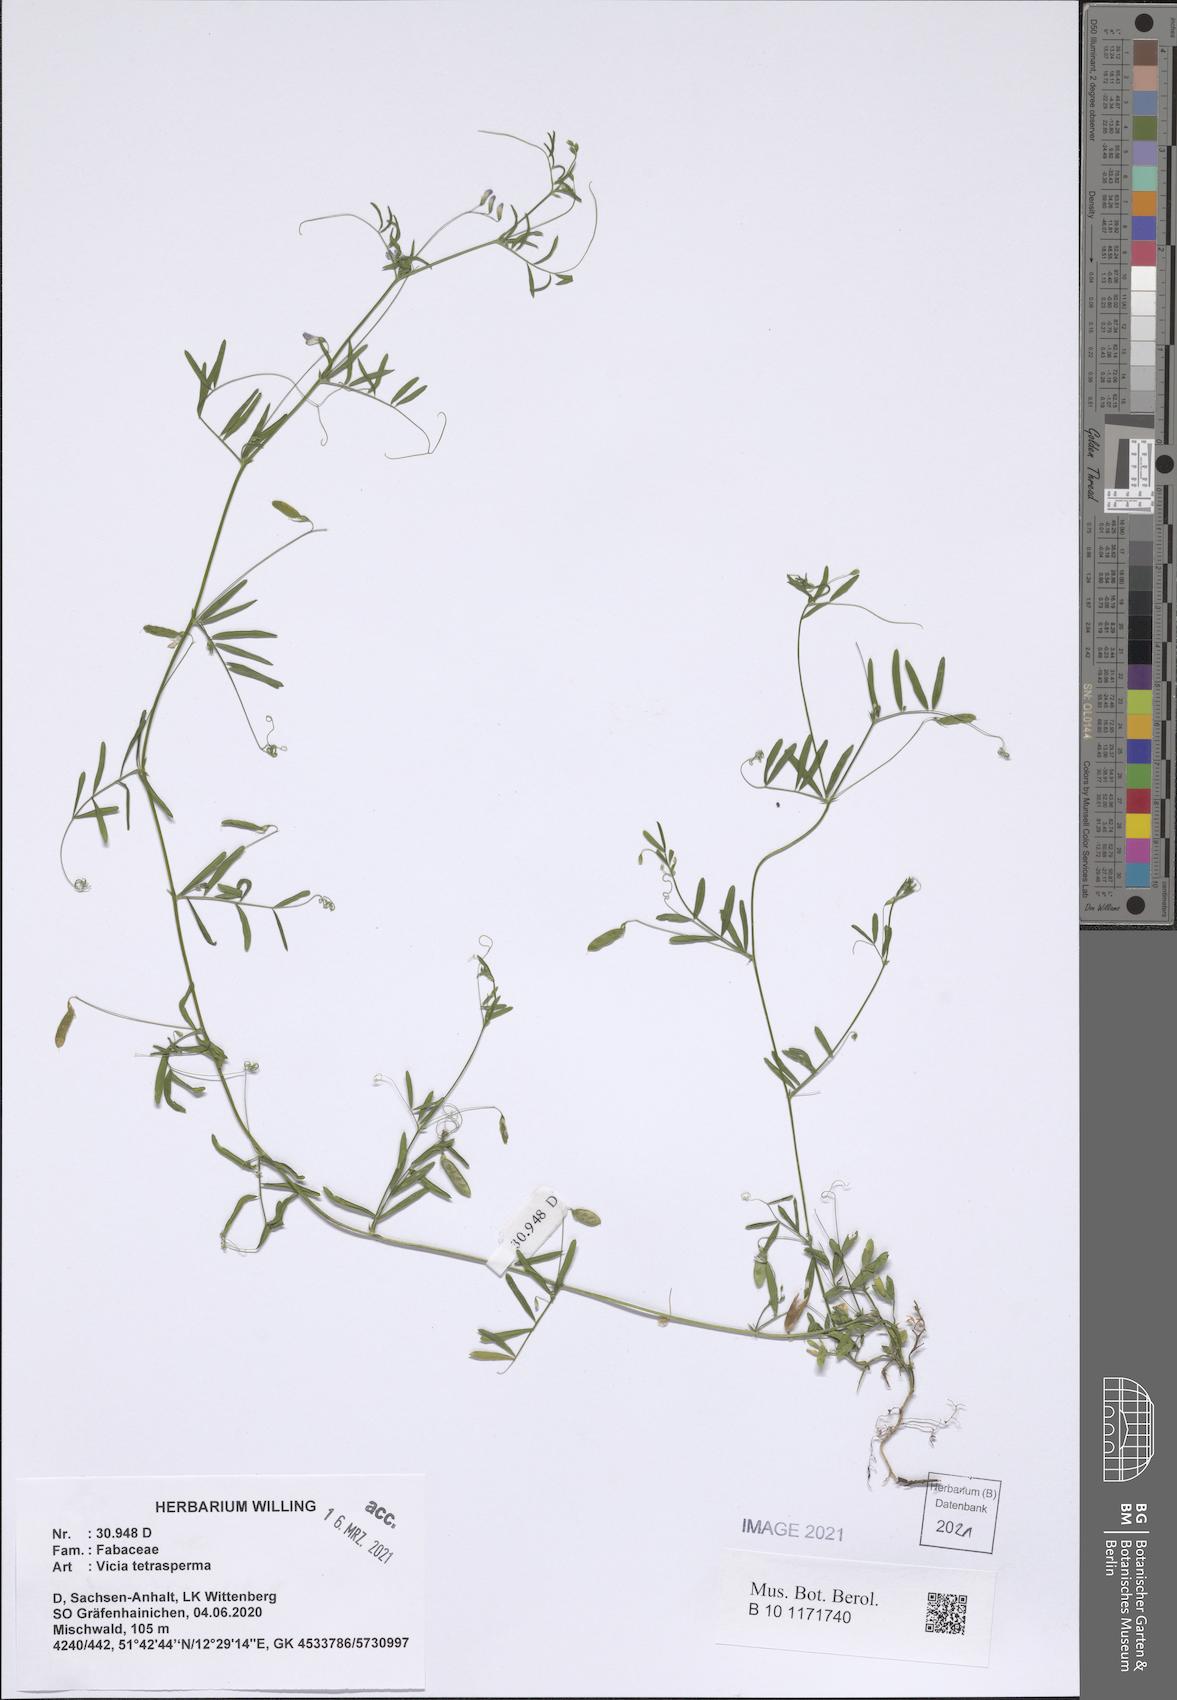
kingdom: Plantae
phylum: Tracheophyta
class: Magnoliopsida
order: Fabales
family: Fabaceae
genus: Vicia
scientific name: Vicia tetrasperma
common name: Smooth tare
